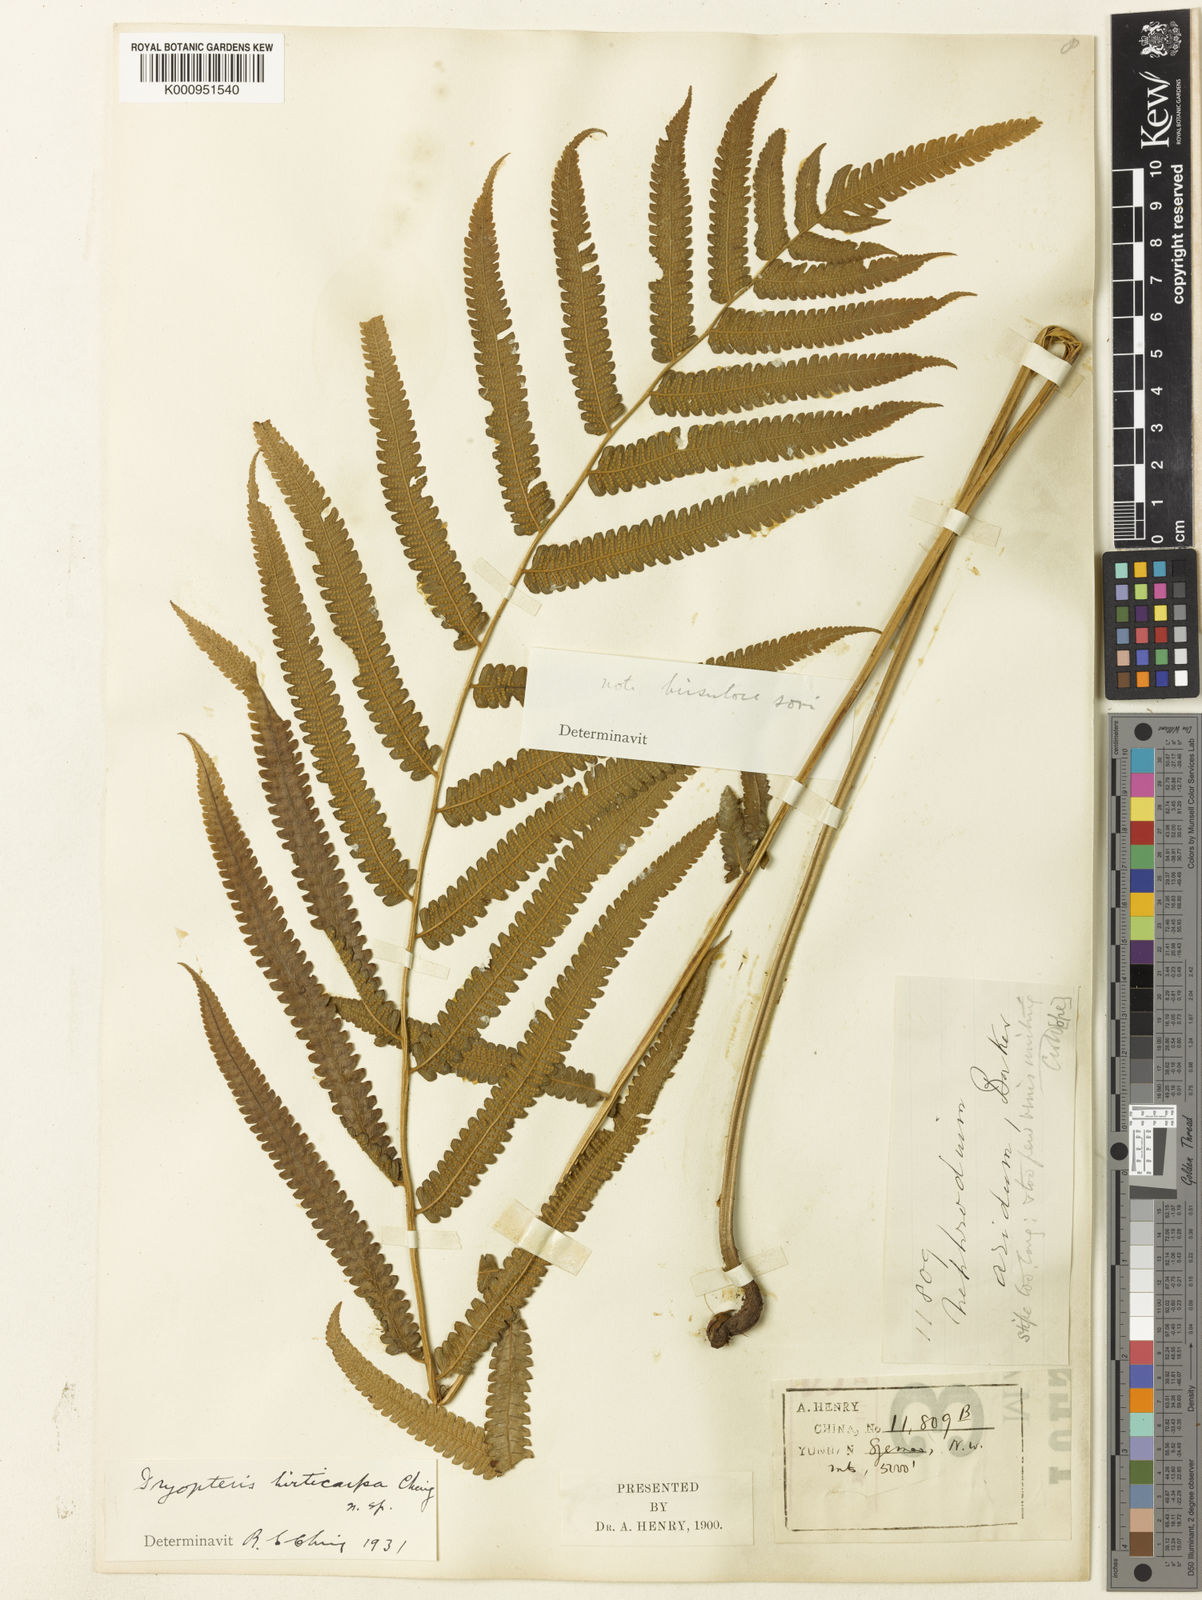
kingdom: Plantae
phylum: Tracheophyta
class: Polypodiopsida
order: Polypodiales
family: Thelypteridaceae
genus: Abacopteris
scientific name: Abacopteris hirtisora
